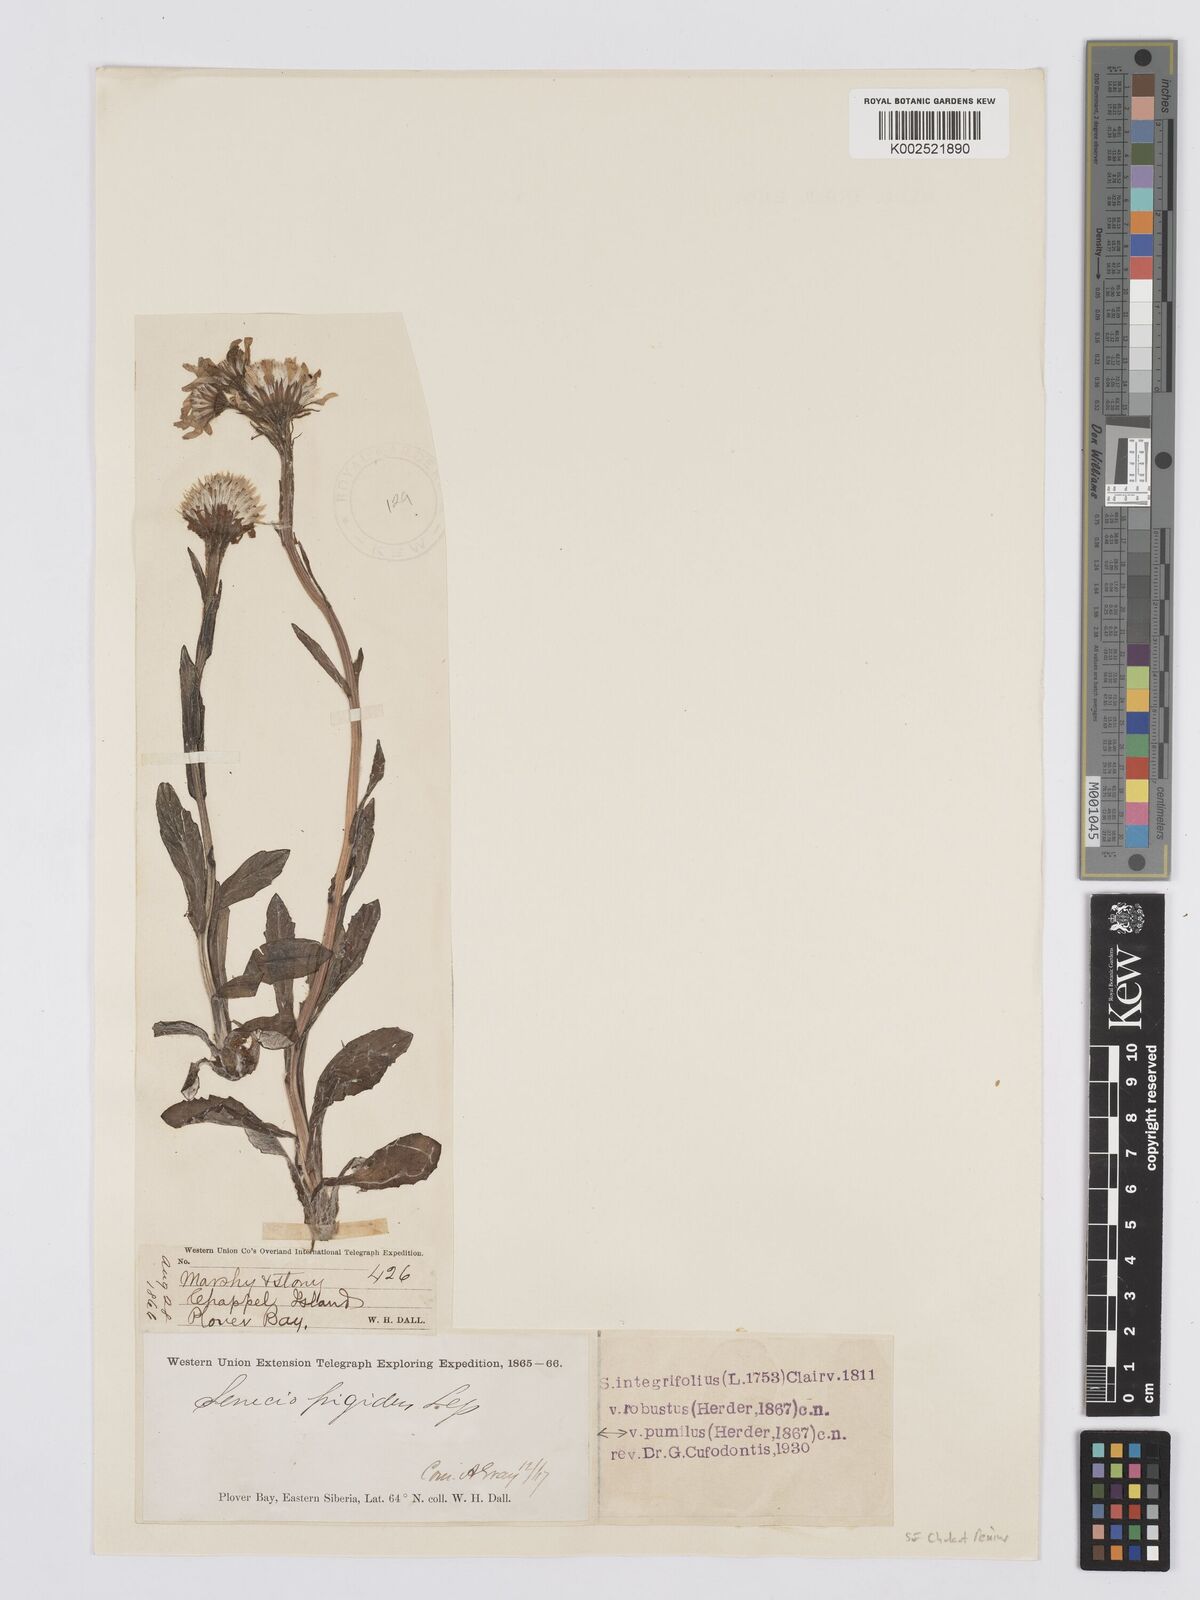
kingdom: Plantae
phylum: Tracheophyta
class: Magnoliopsida
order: Asterales
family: Asteraceae
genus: Tephroseris
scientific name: Tephroseris integrifolia
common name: Field fleawort
